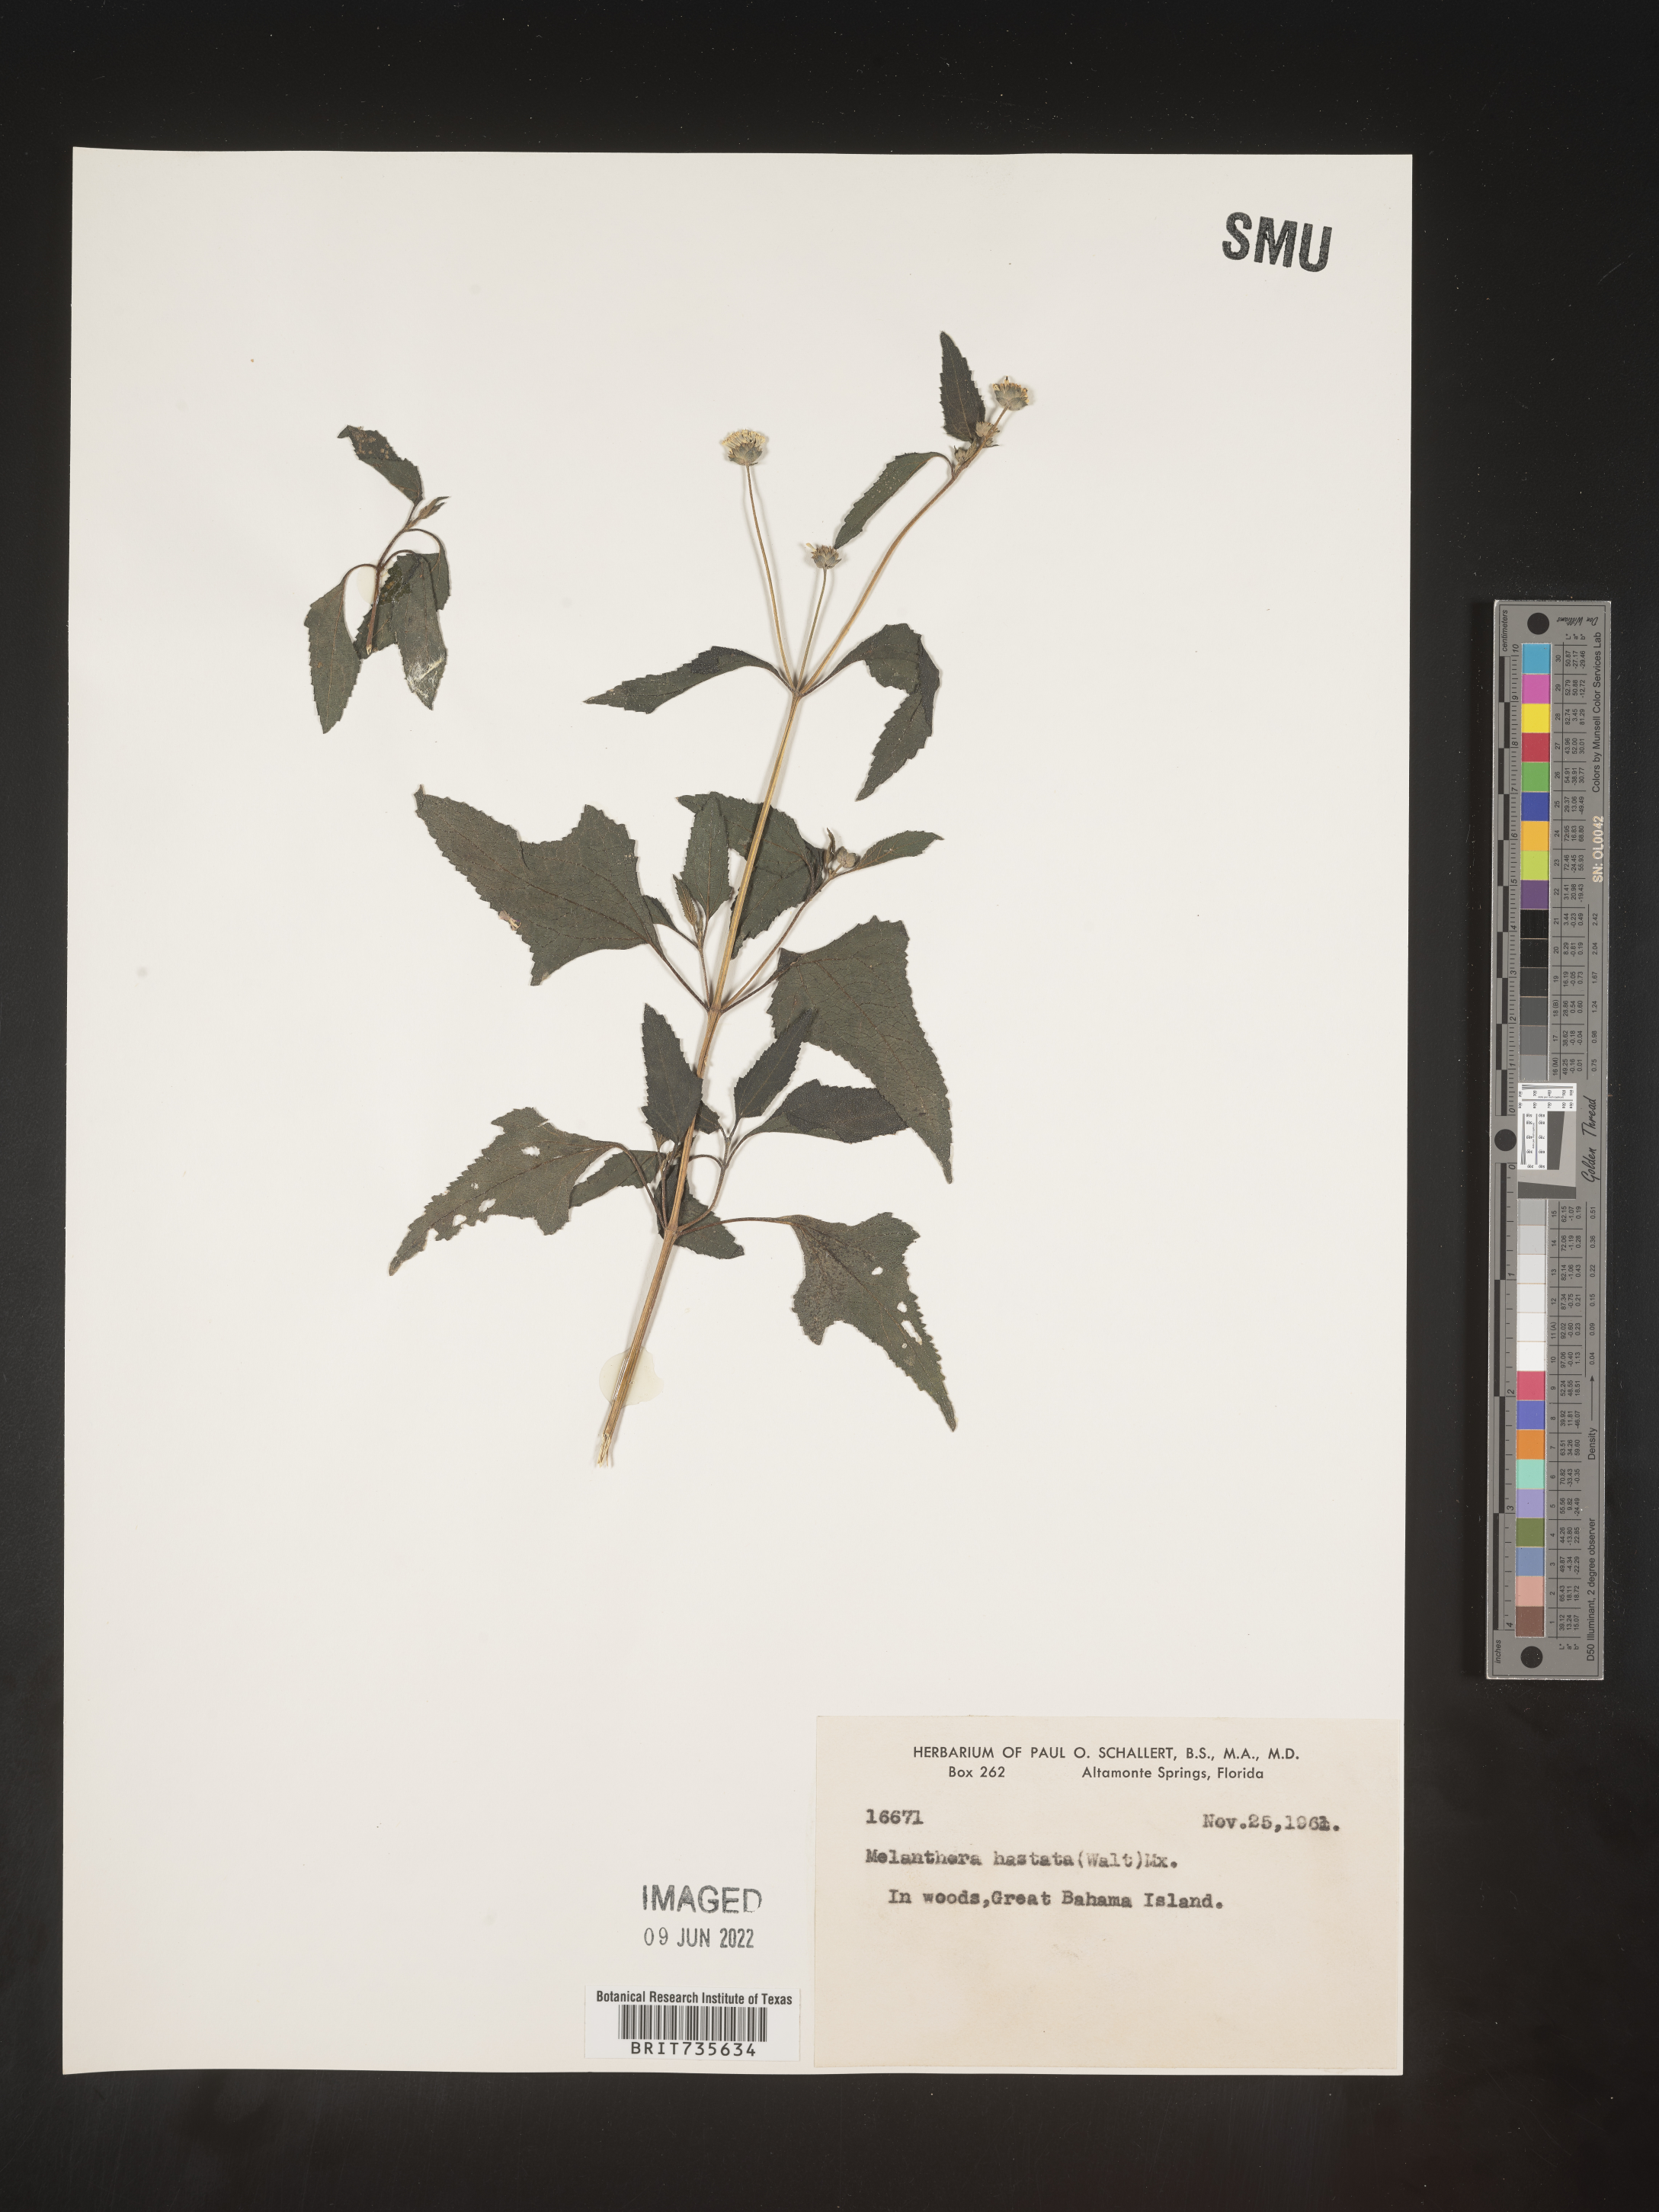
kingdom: Plantae
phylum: Tracheophyta
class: Magnoliopsida
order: Asterales
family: Asteraceae
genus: Melanthera
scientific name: Melanthera
